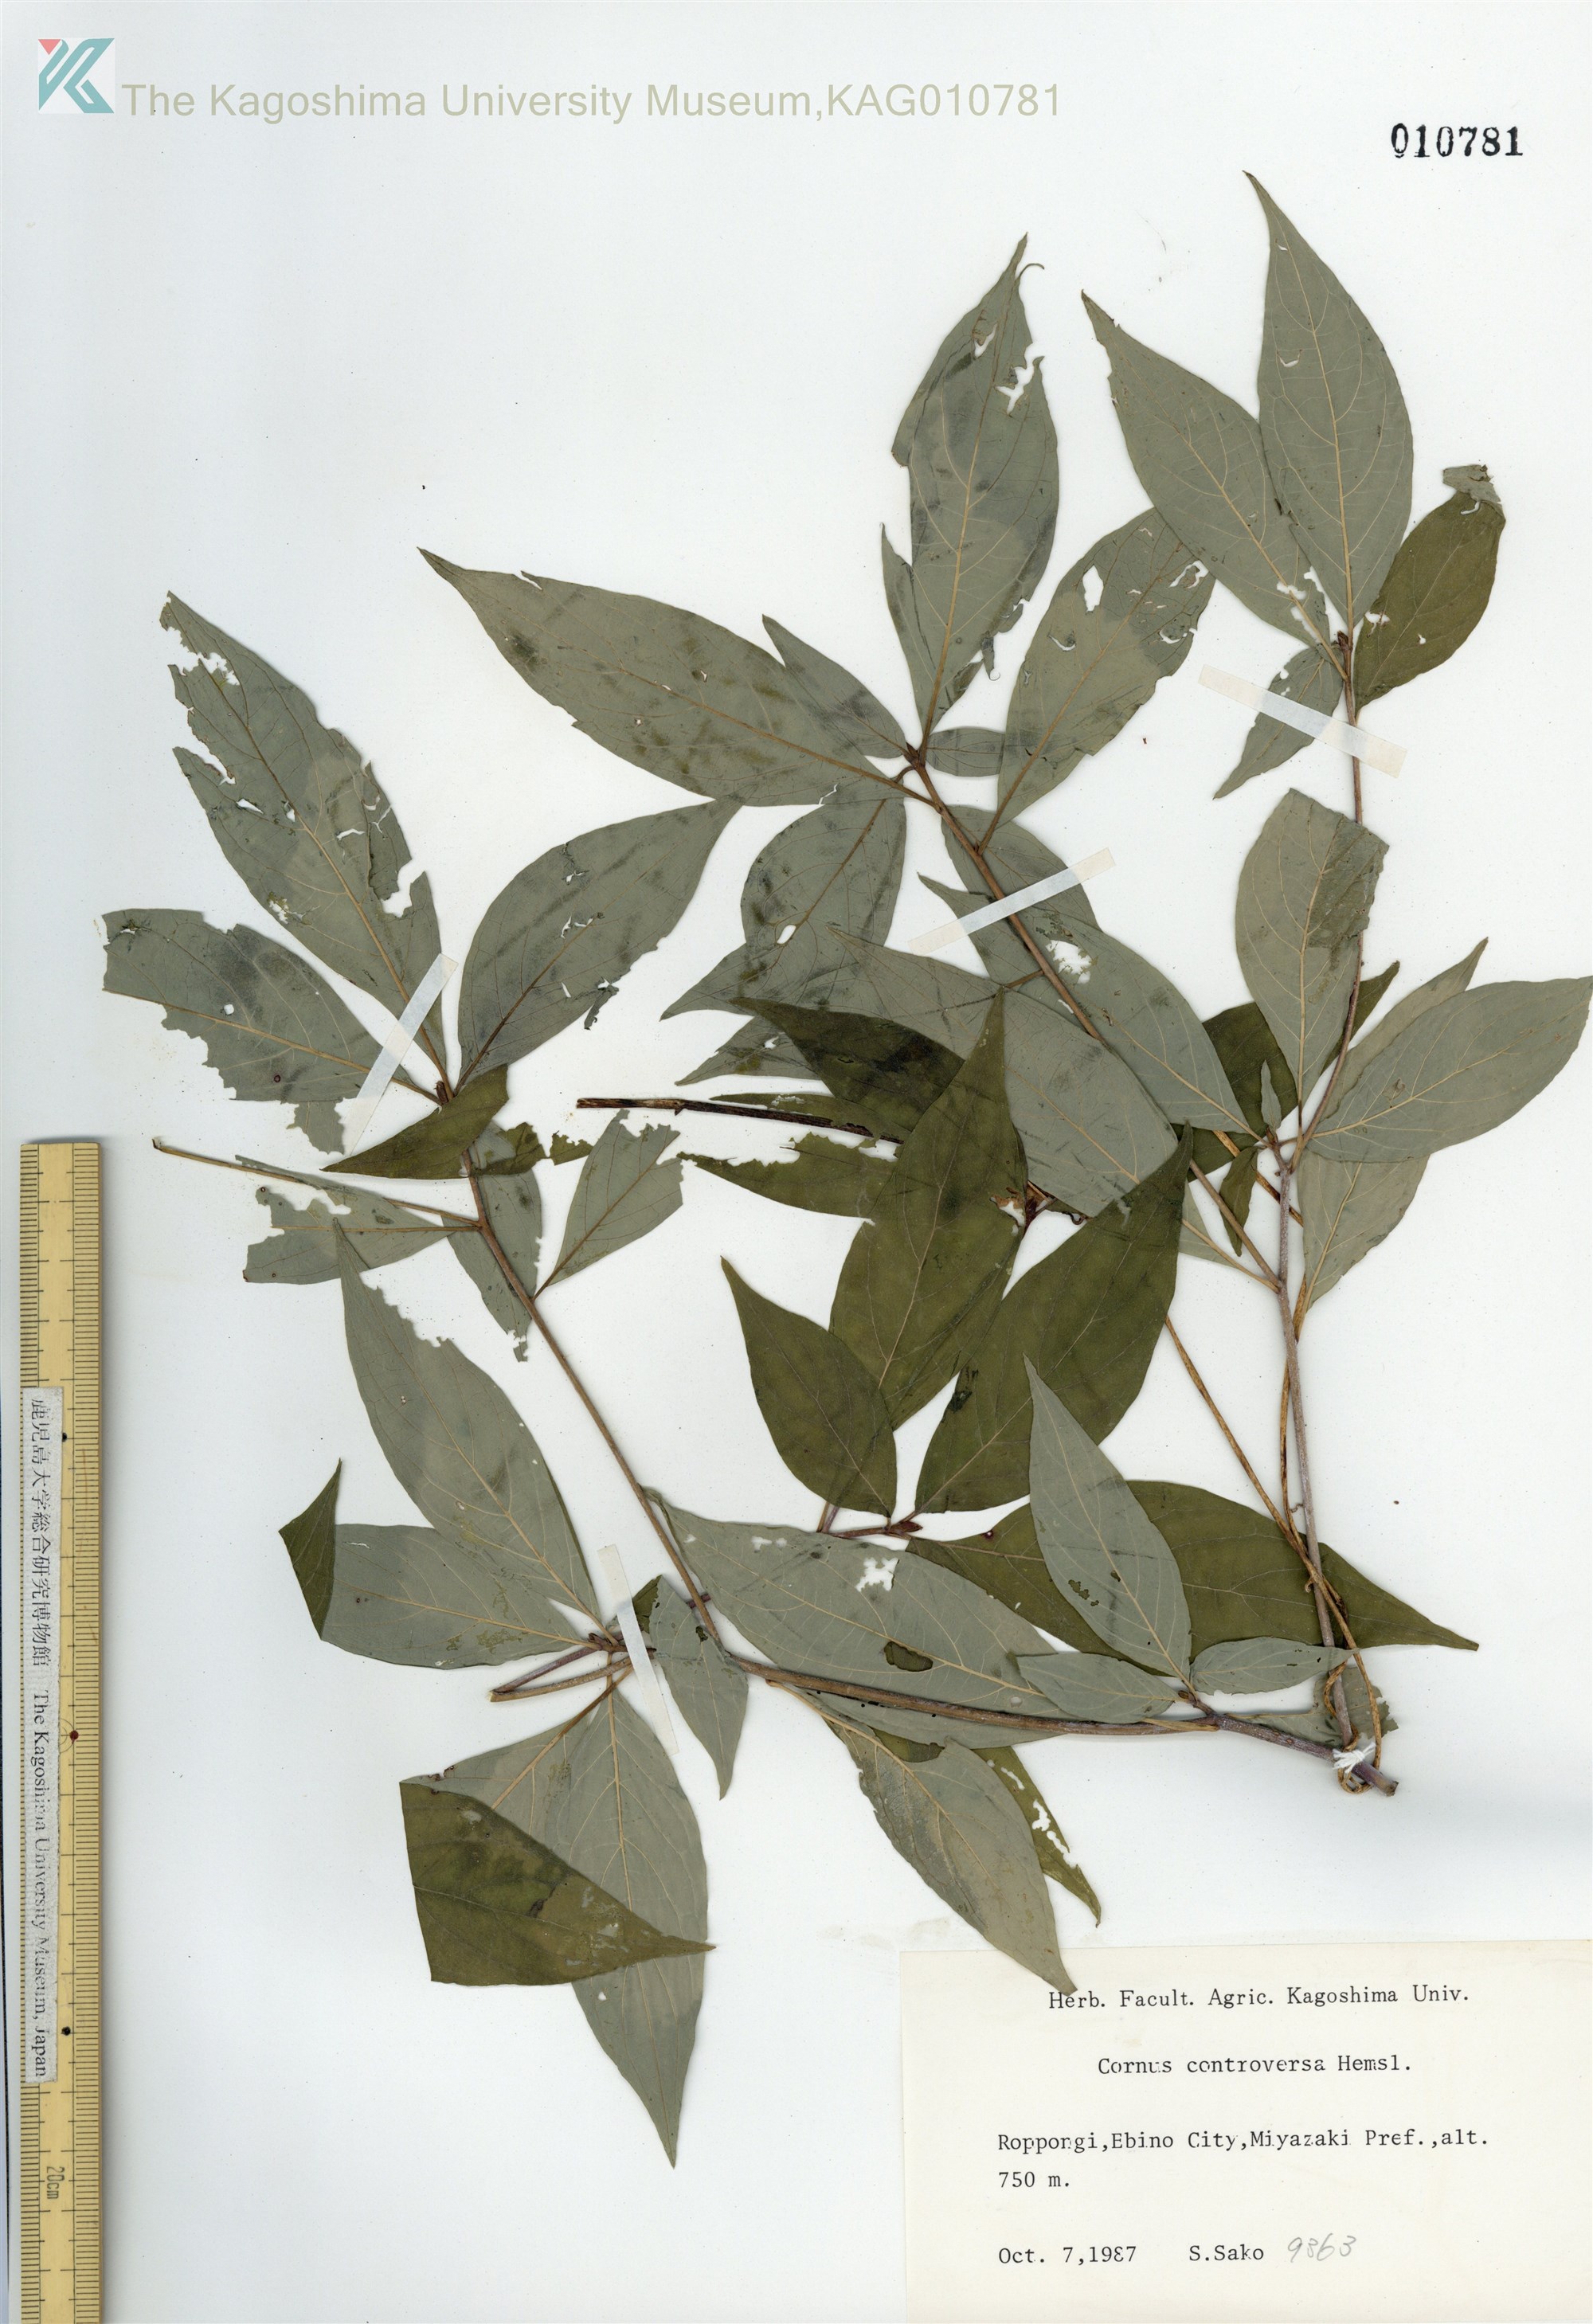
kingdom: Plantae
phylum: Tracheophyta
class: Magnoliopsida
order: Cornales
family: Cornaceae
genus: Cornus
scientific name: Cornus controversa
